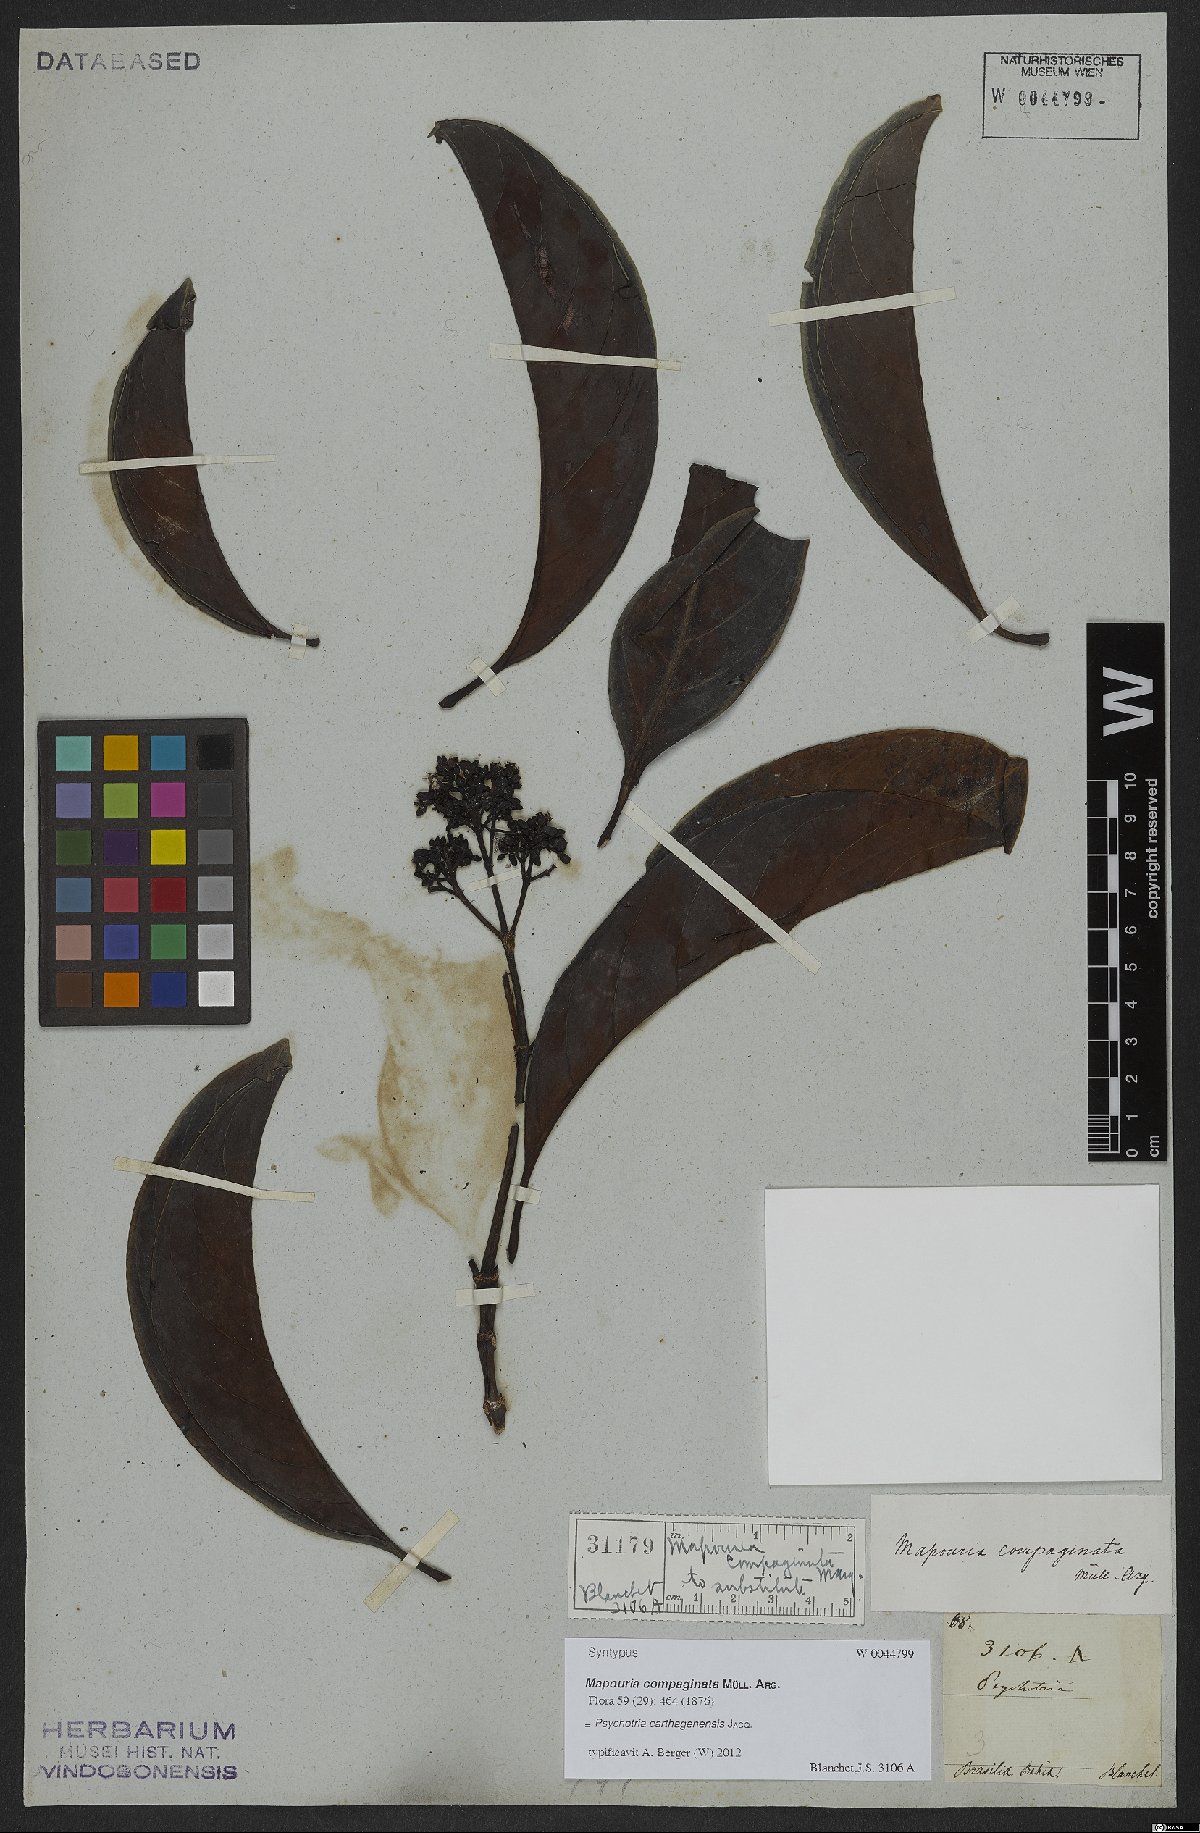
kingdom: Plantae
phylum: Tracheophyta
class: Magnoliopsida
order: Gentianales
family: Rubiaceae
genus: Psychotria
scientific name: Psychotria carthagenensis
